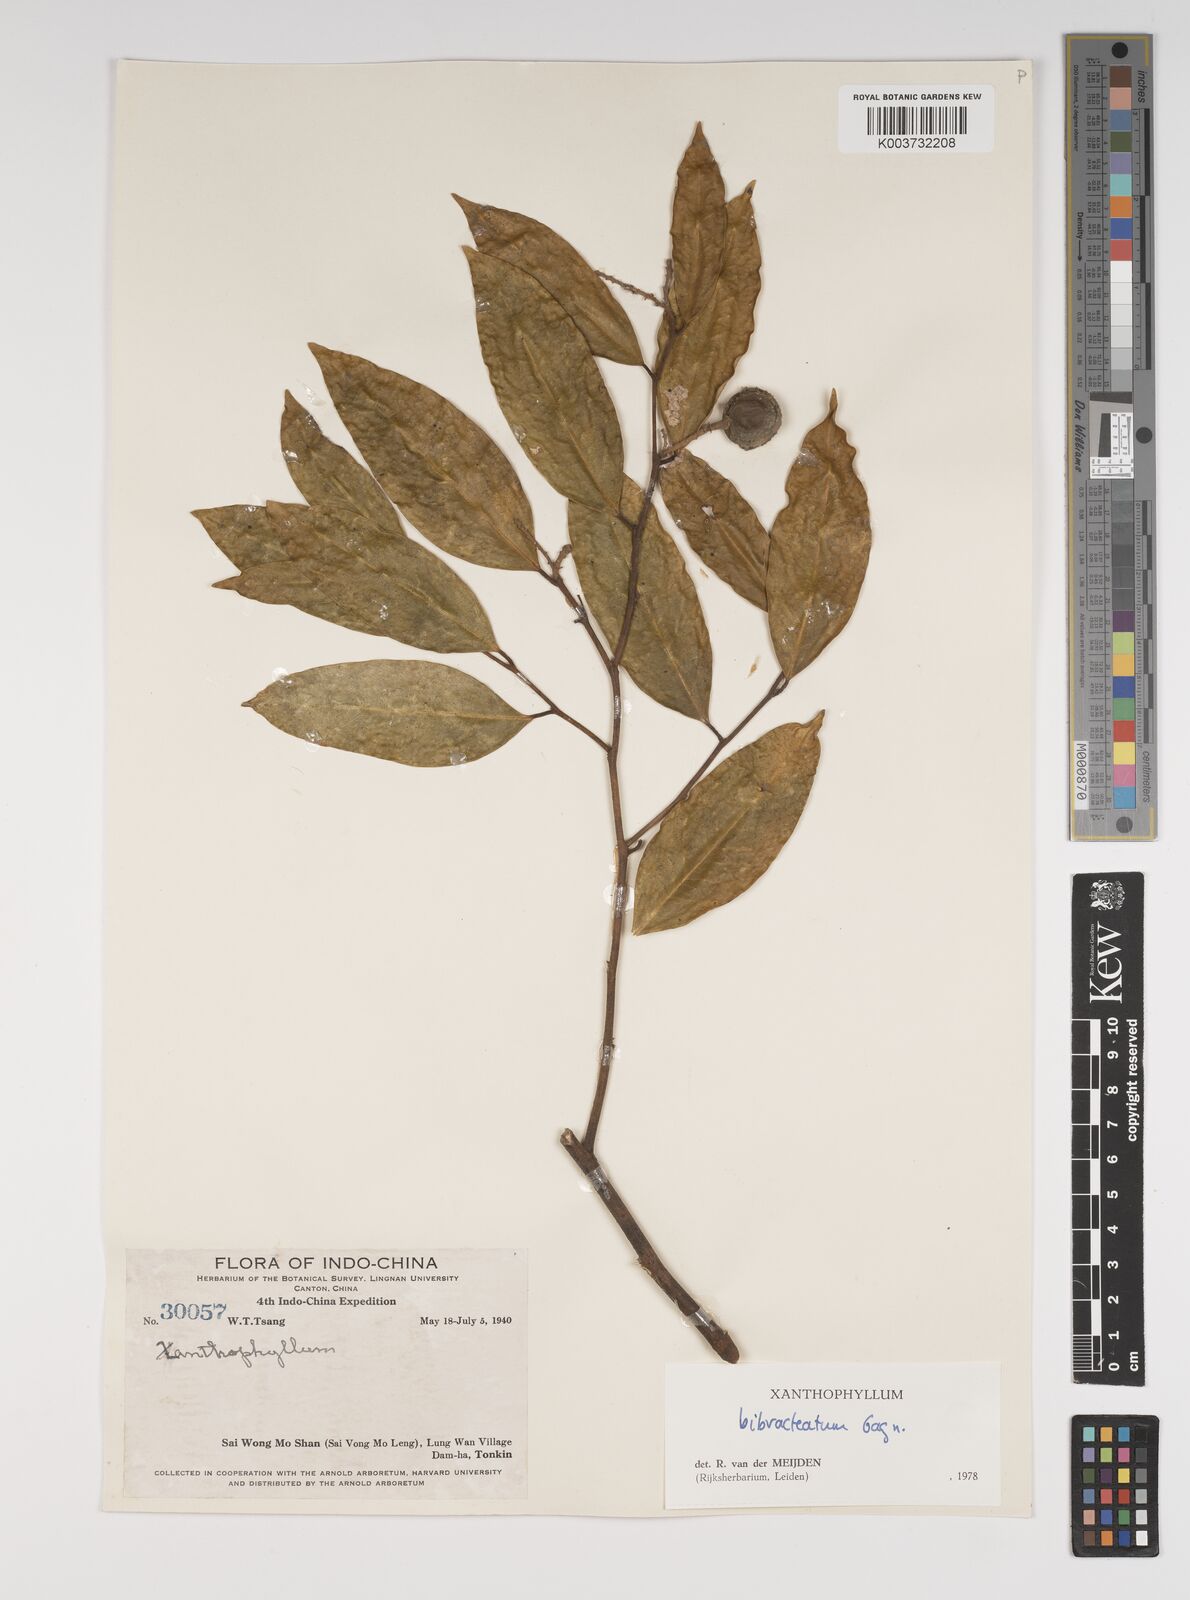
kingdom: Plantae
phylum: Tracheophyta
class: Magnoliopsida
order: Fabales
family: Polygalaceae
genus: Xanthophyllum
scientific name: Xanthophyllum bibracteatum
